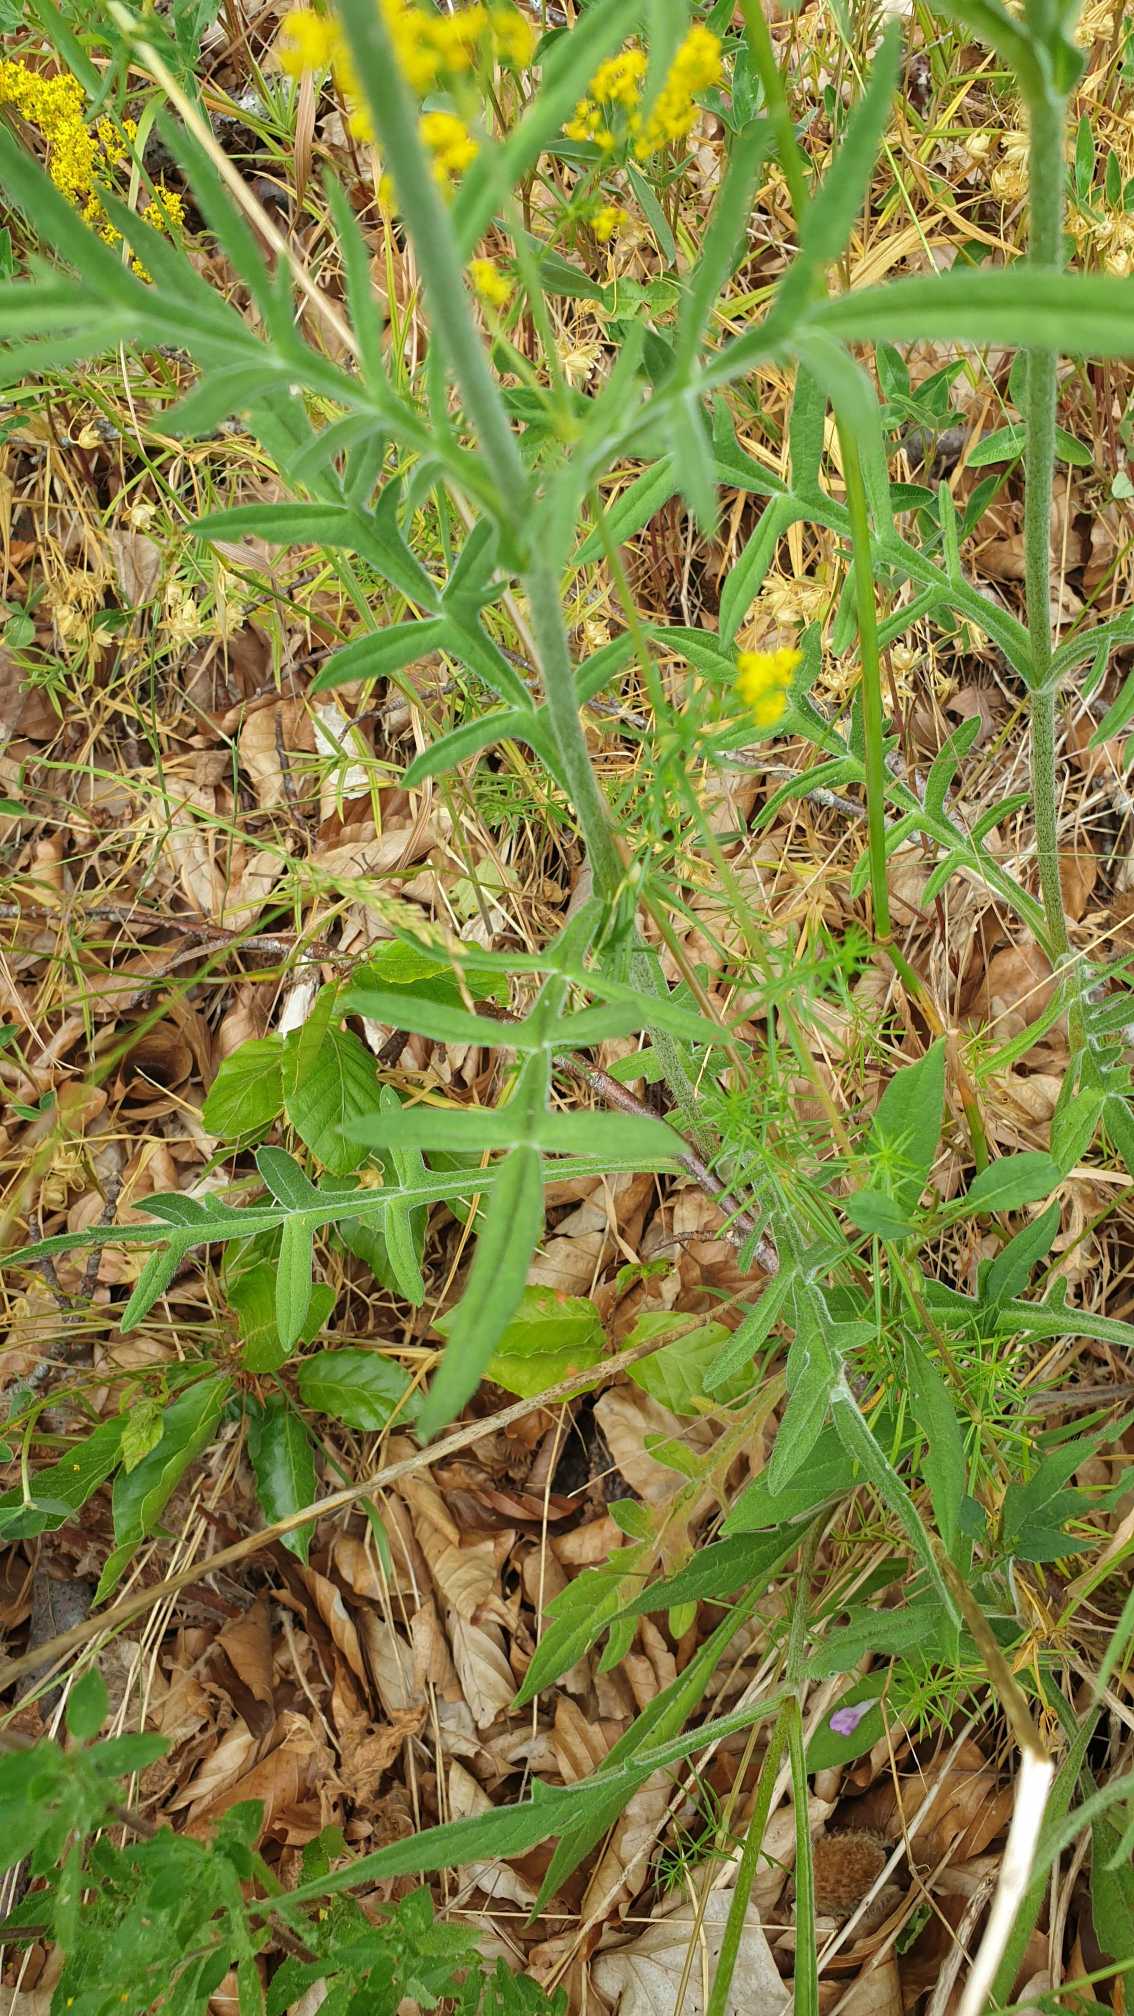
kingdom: Plantae
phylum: Tracheophyta
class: Magnoliopsida
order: Dipsacales
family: Caprifoliaceae
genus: Knautia
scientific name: Knautia arvensis
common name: Blåhat
